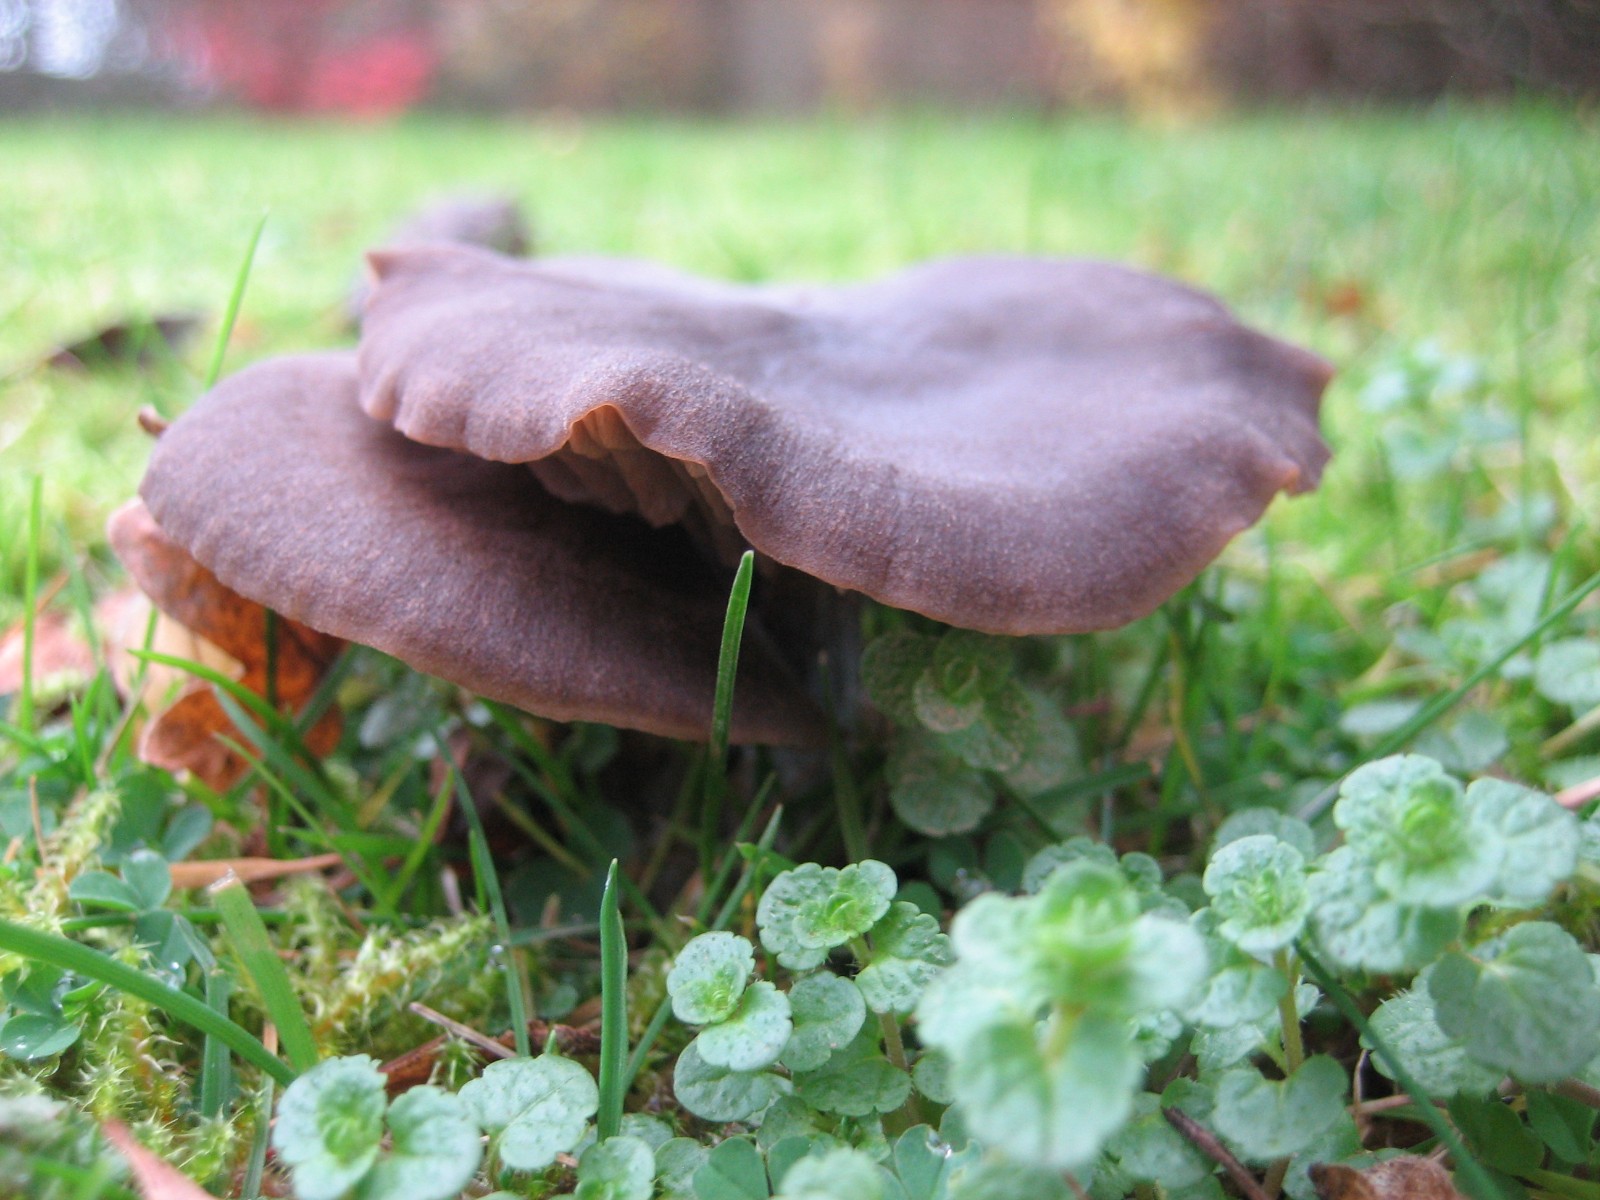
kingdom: Fungi
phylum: Basidiomycota
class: Agaricomycetes
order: Agaricales
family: Entolomataceae
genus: Entoloma
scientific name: Entoloma sericeum
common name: silkeglinsende rødblad
